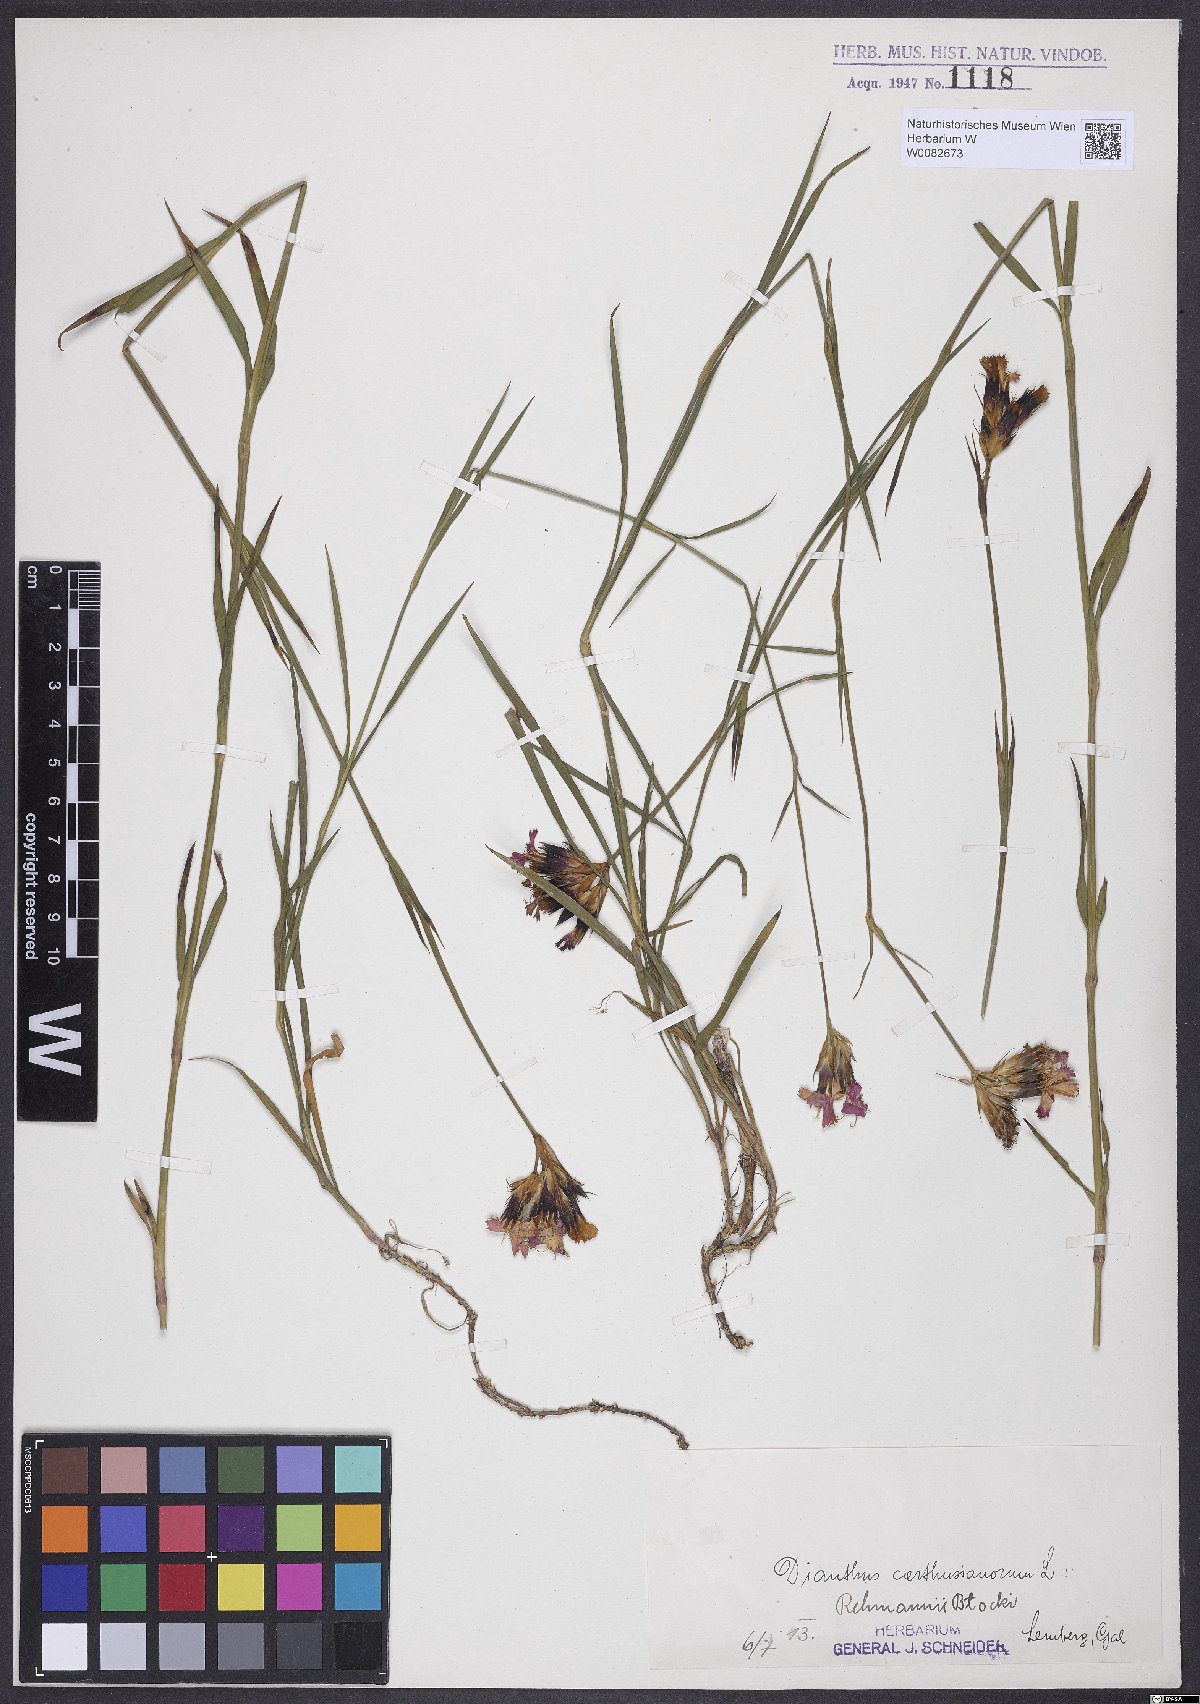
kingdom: Plantae
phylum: Tracheophyta
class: Magnoliopsida
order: Caryophyllales
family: Caryophyllaceae
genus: Dianthus
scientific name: Dianthus carthusianorum
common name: Carthusian pink
